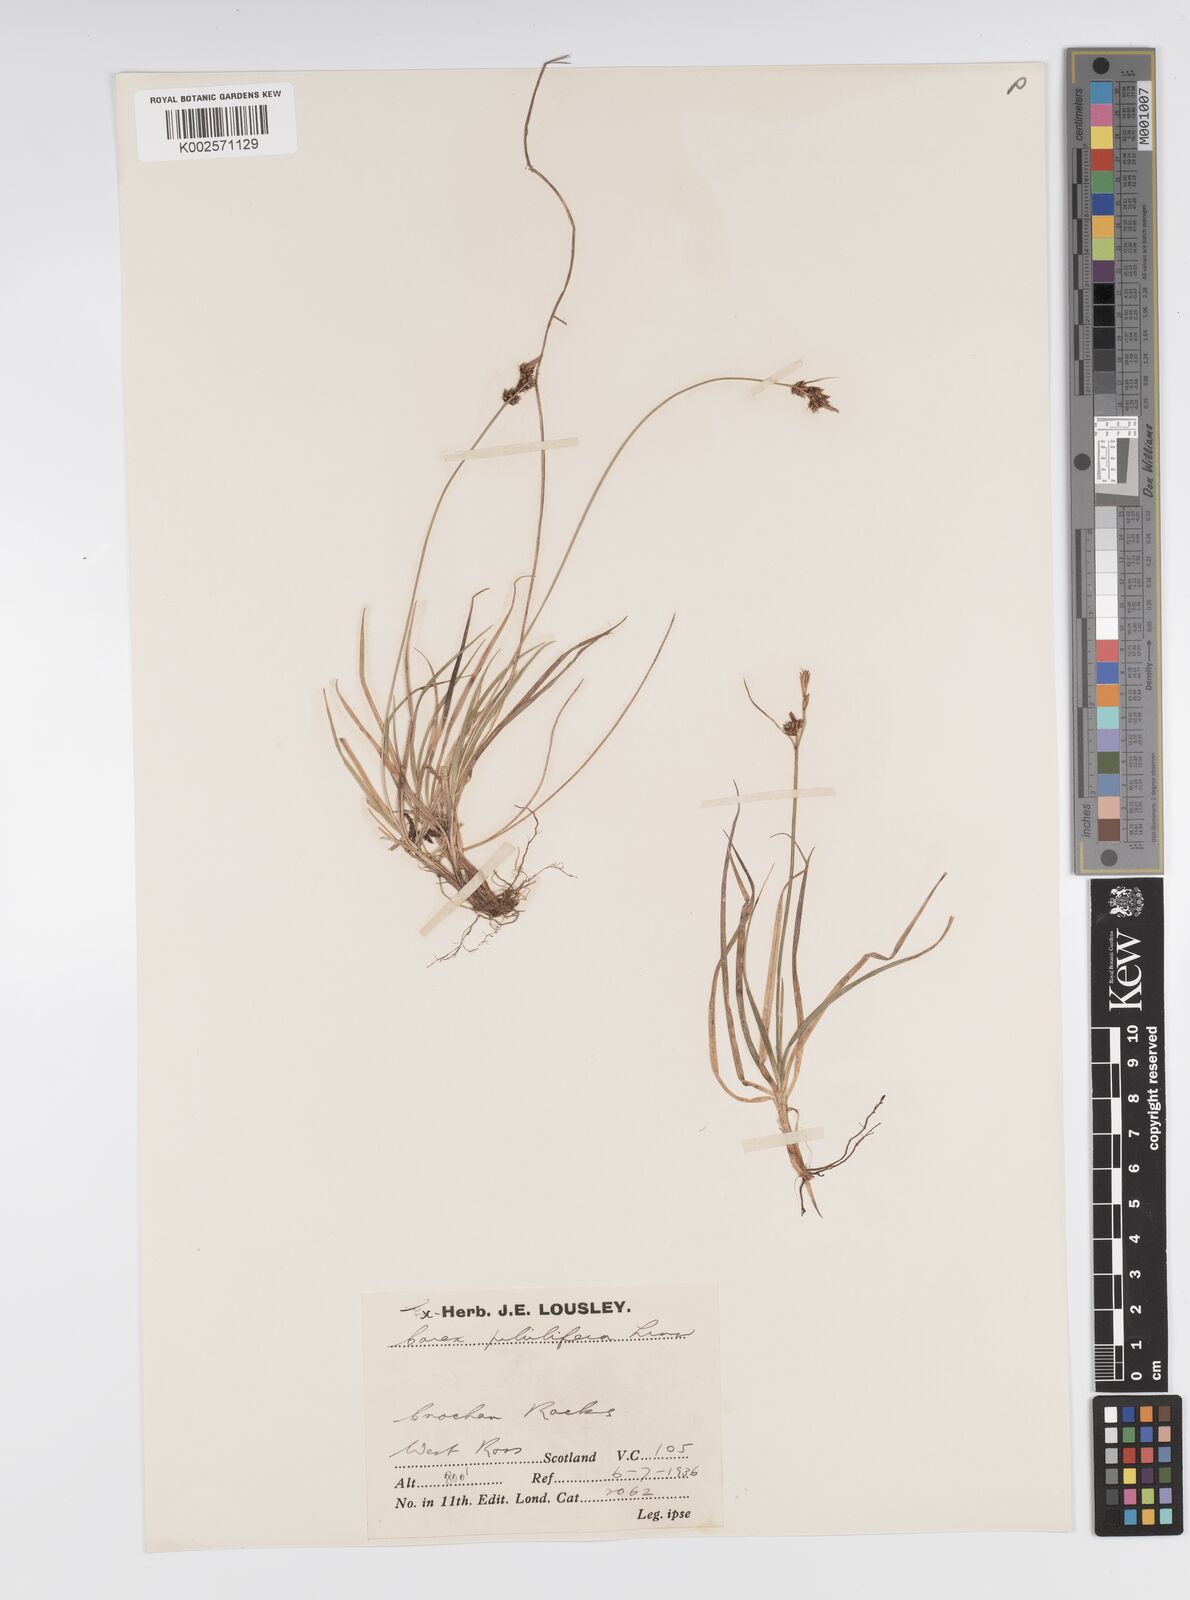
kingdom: Plantae
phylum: Tracheophyta
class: Liliopsida
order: Poales
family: Cyperaceae
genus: Carex
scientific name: Carex pilulifera
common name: Pill sedge
